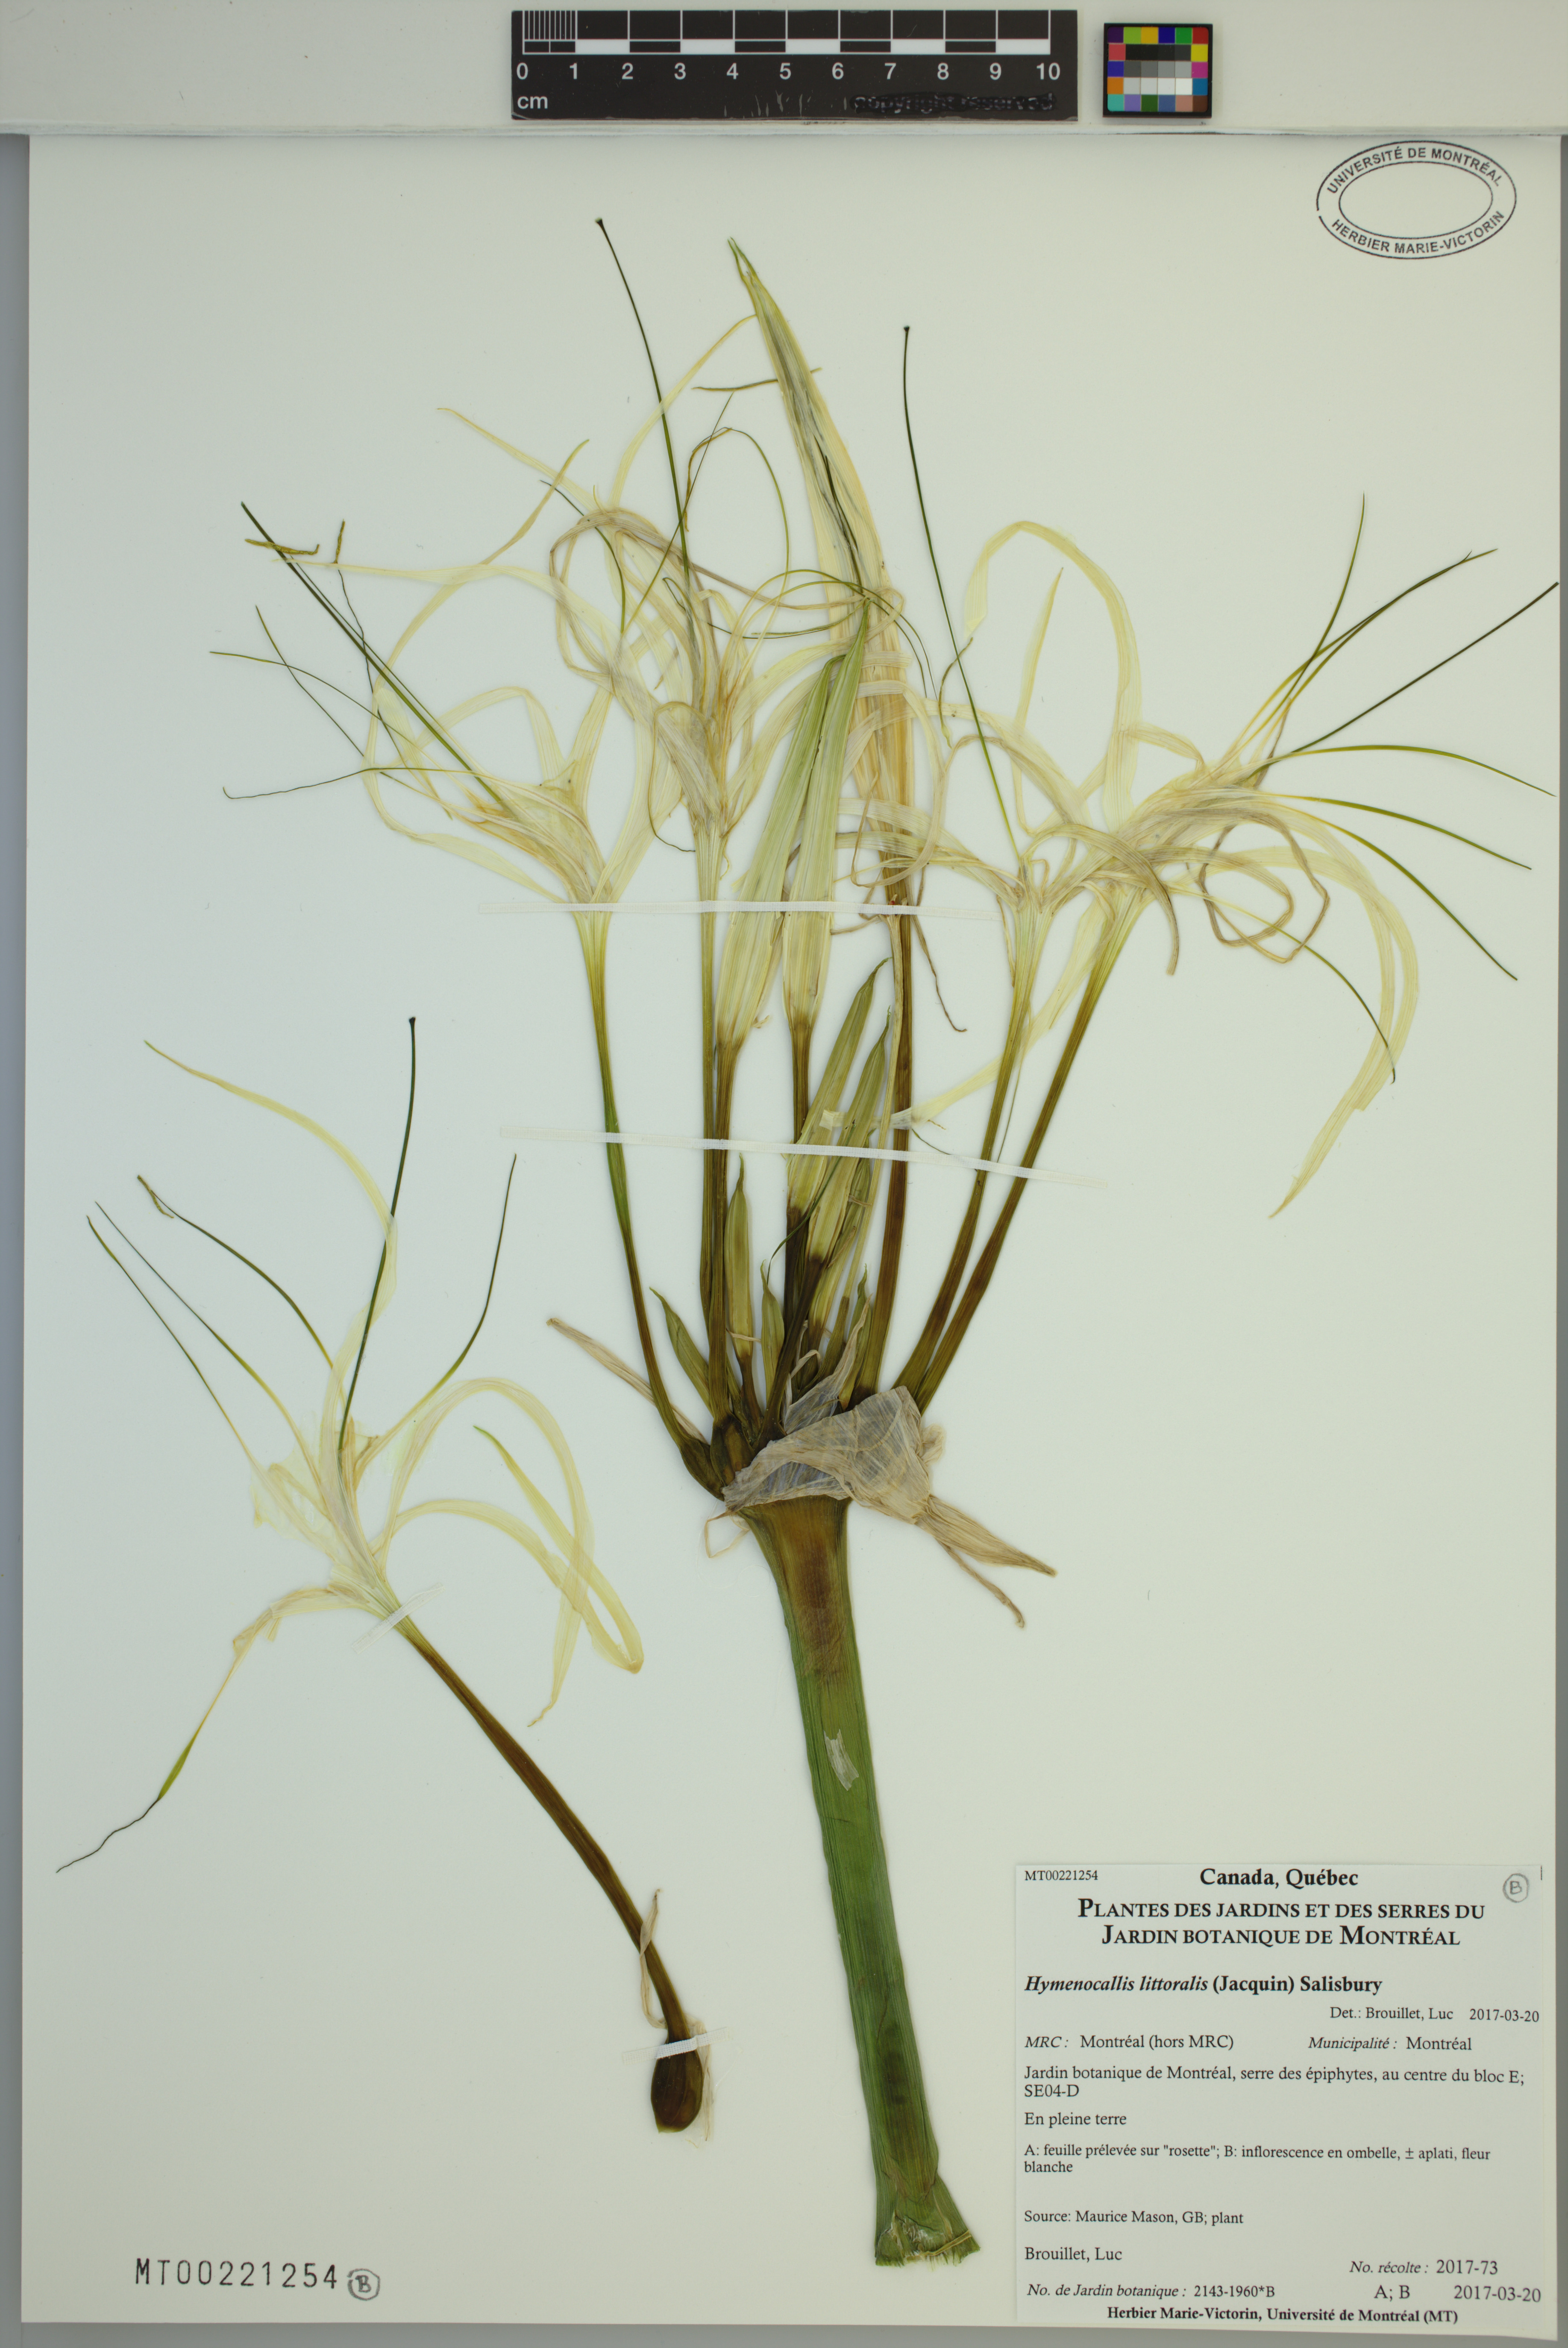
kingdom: Plantae
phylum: Tracheophyta
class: Liliopsida
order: Asparagales
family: Amaryllidaceae
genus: Hymenocallis
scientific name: Hymenocallis littoralis
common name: Beach spiderlily
